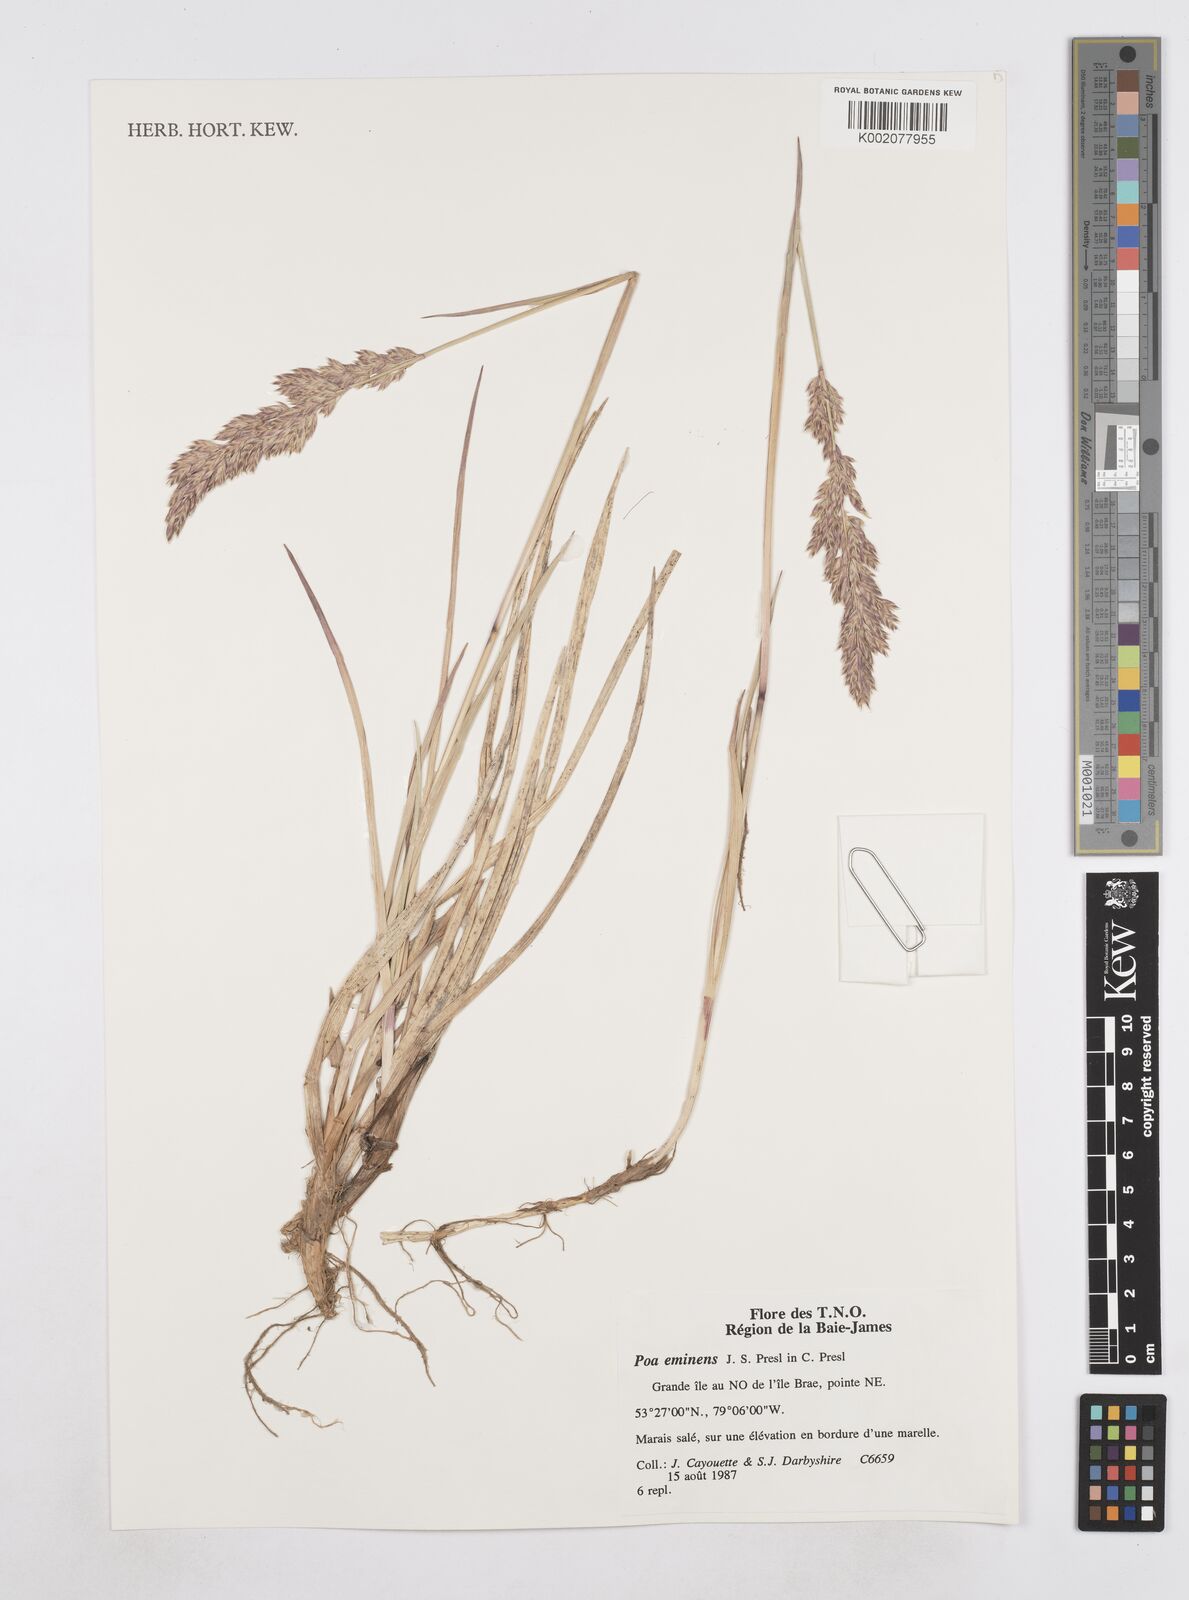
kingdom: Plantae
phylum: Tracheophyta
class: Liliopsida
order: Poales
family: Poaceae
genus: Arctopoa
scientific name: Arctopoa eminens
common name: Eminent bluegrass
